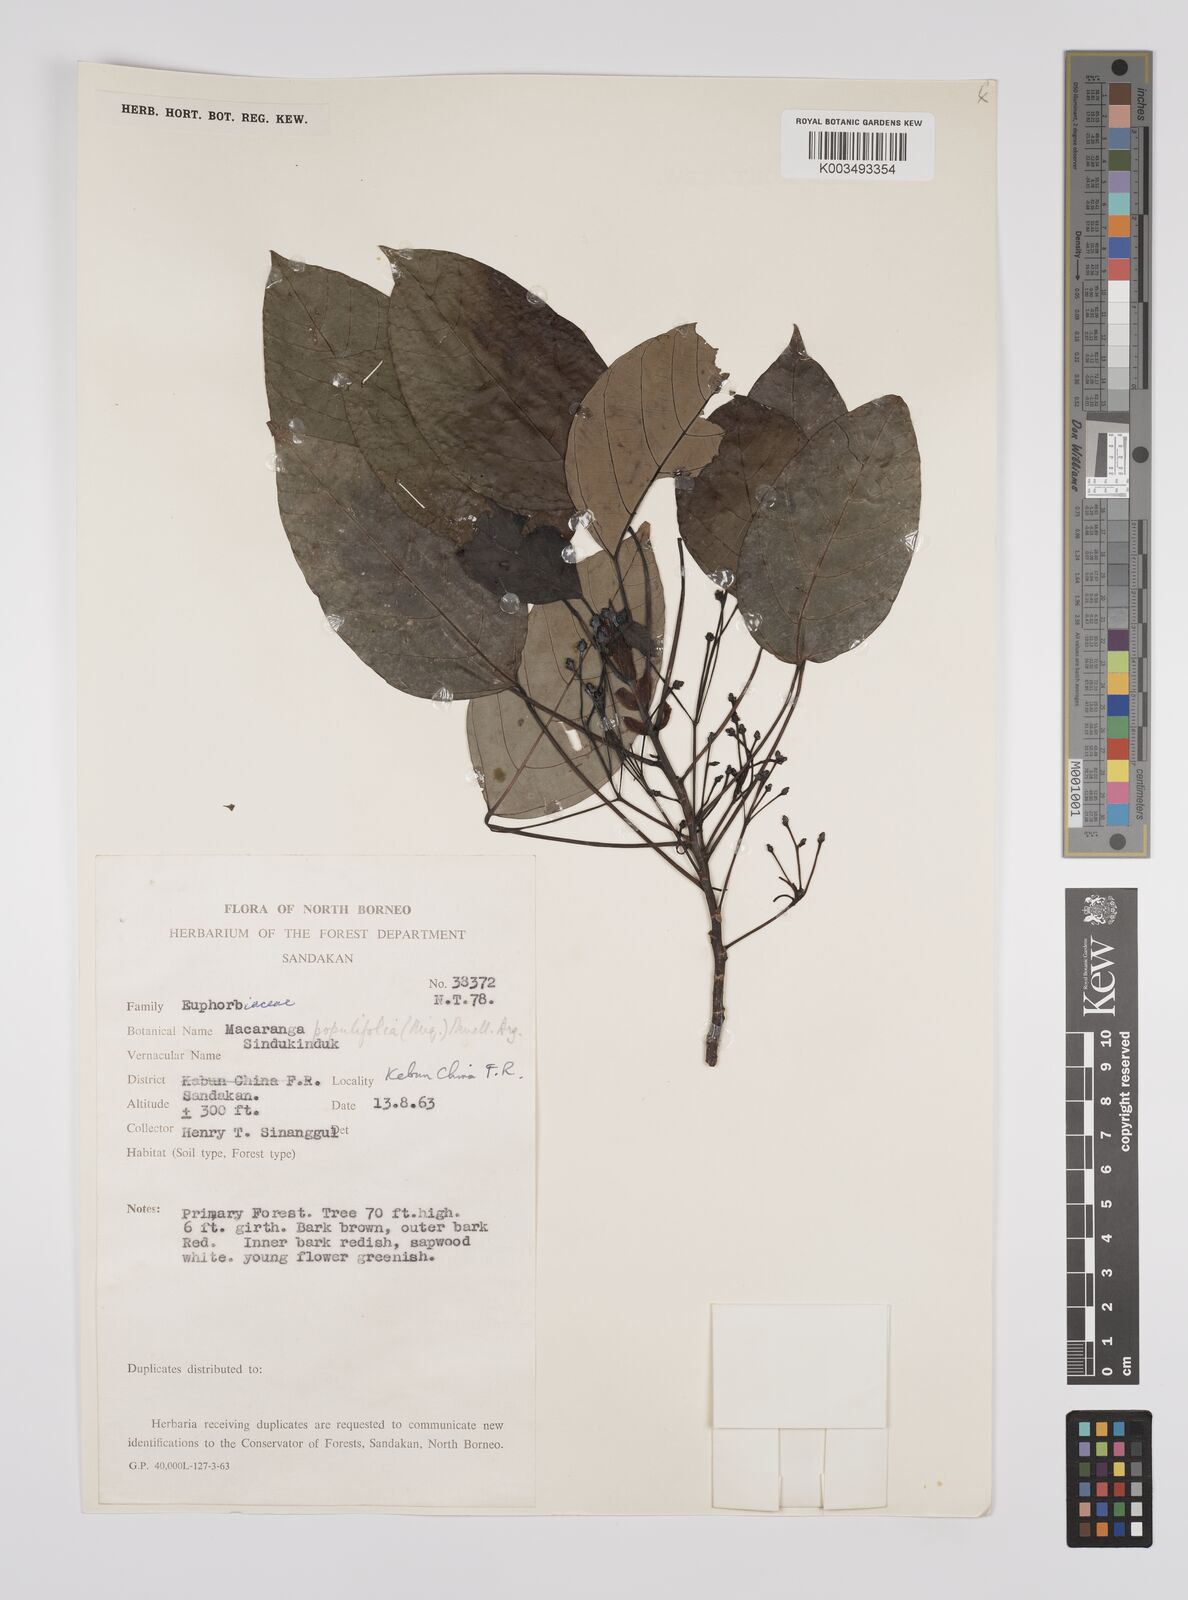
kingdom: Plantae
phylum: Tracheophyta
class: Magnoliopsida
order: Malpighiales
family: Euphorbiaceae
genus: Macaranga
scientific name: Macaranga conifera
